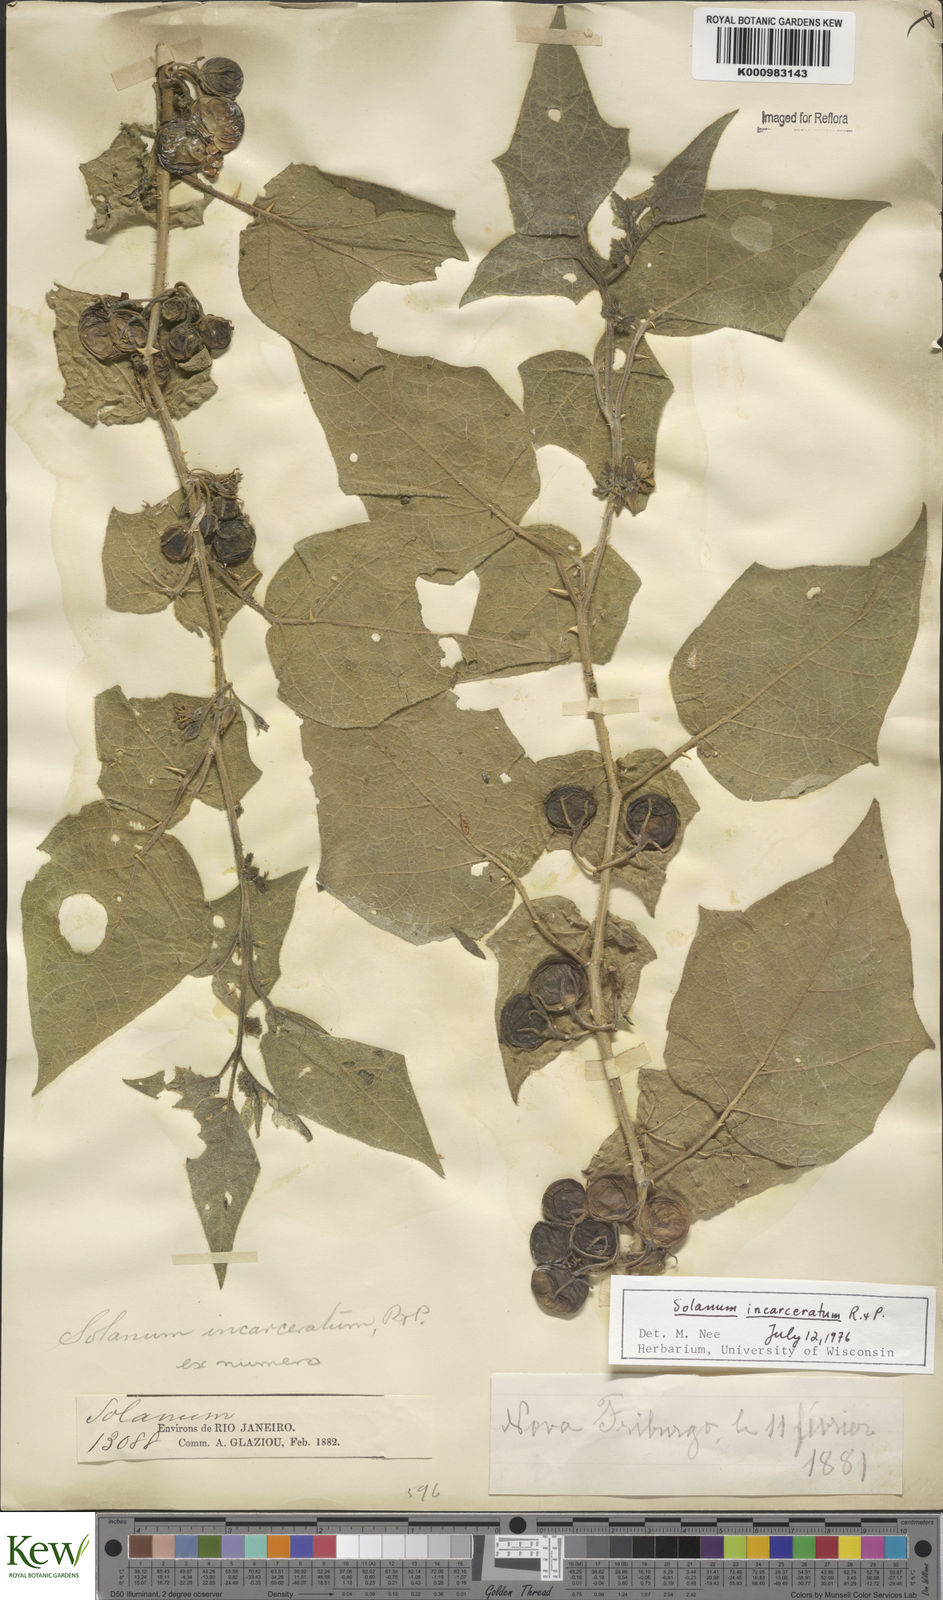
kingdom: Plantae
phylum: Tracheophyta
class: Magnoliopsida
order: Solanales
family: Solanaceae
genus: Solanum
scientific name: Solanum incarceratum
